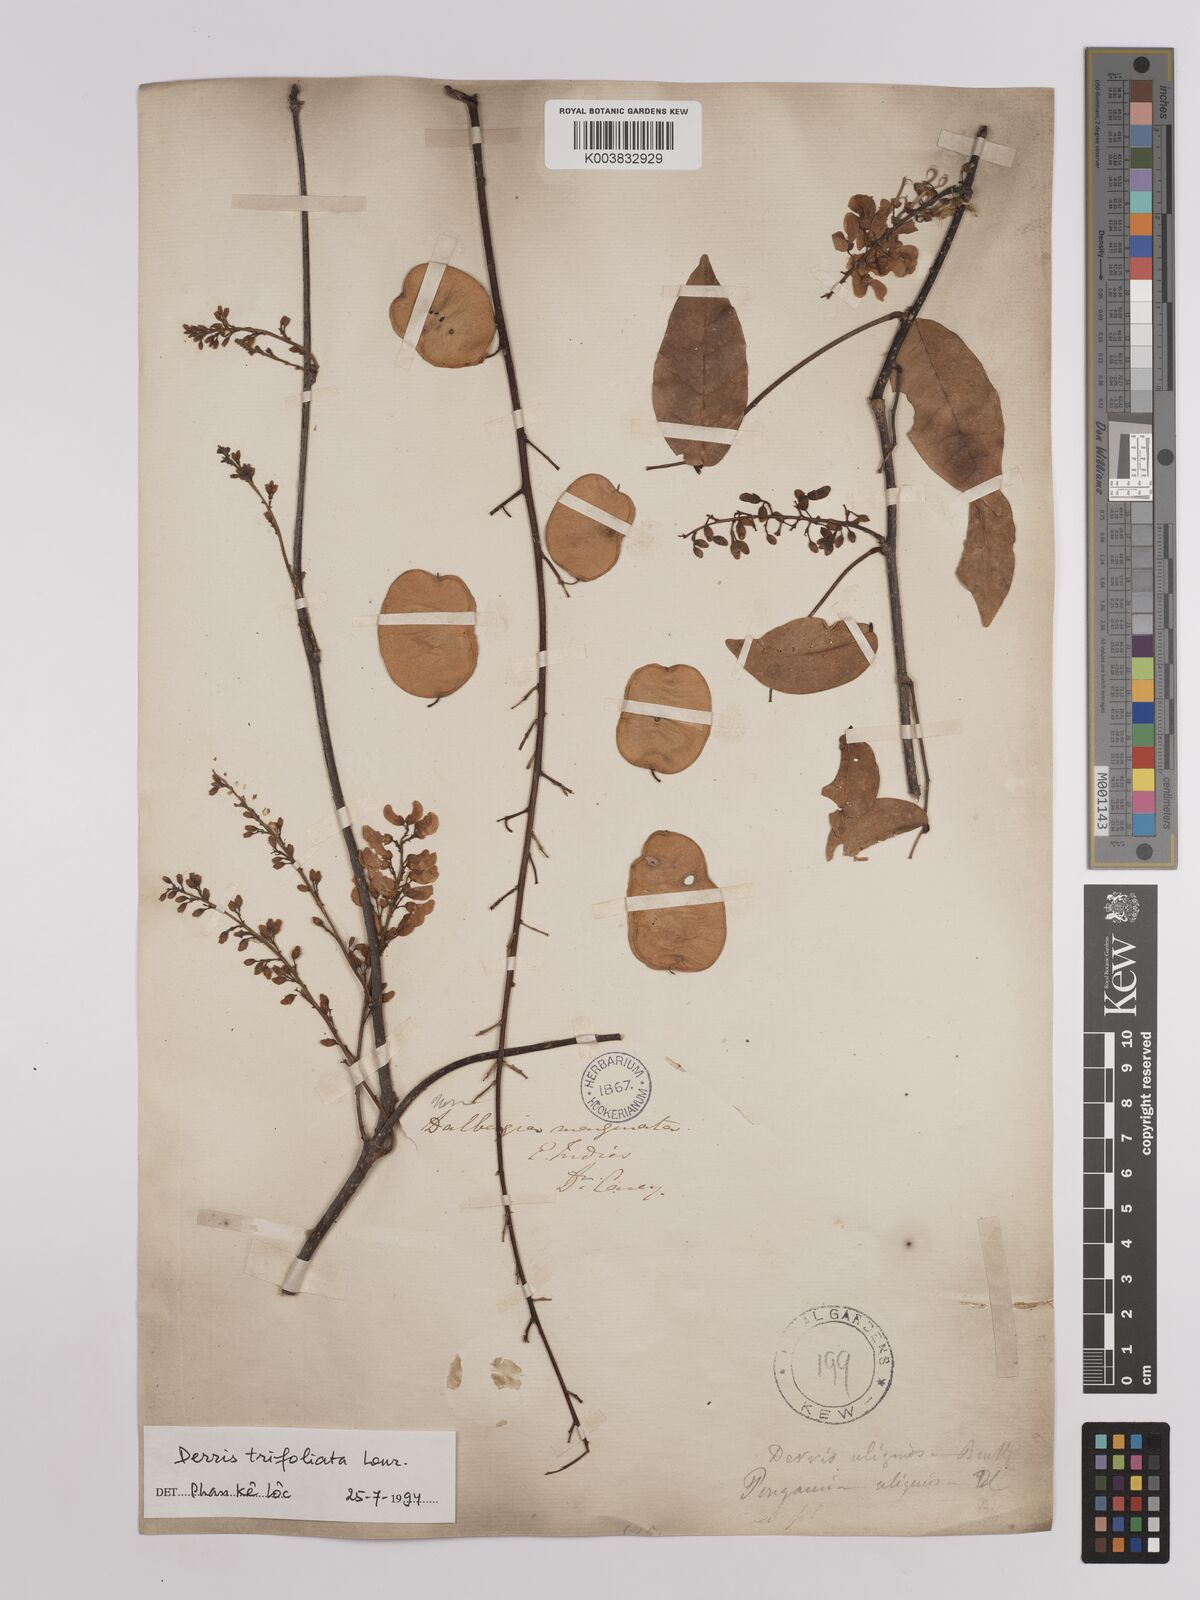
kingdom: Plantae
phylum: Tracheophyta
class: Magnoliopsida
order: Fabales
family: Fabaceae
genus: Derris
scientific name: Derris trifoliata
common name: Three-leaf derris
